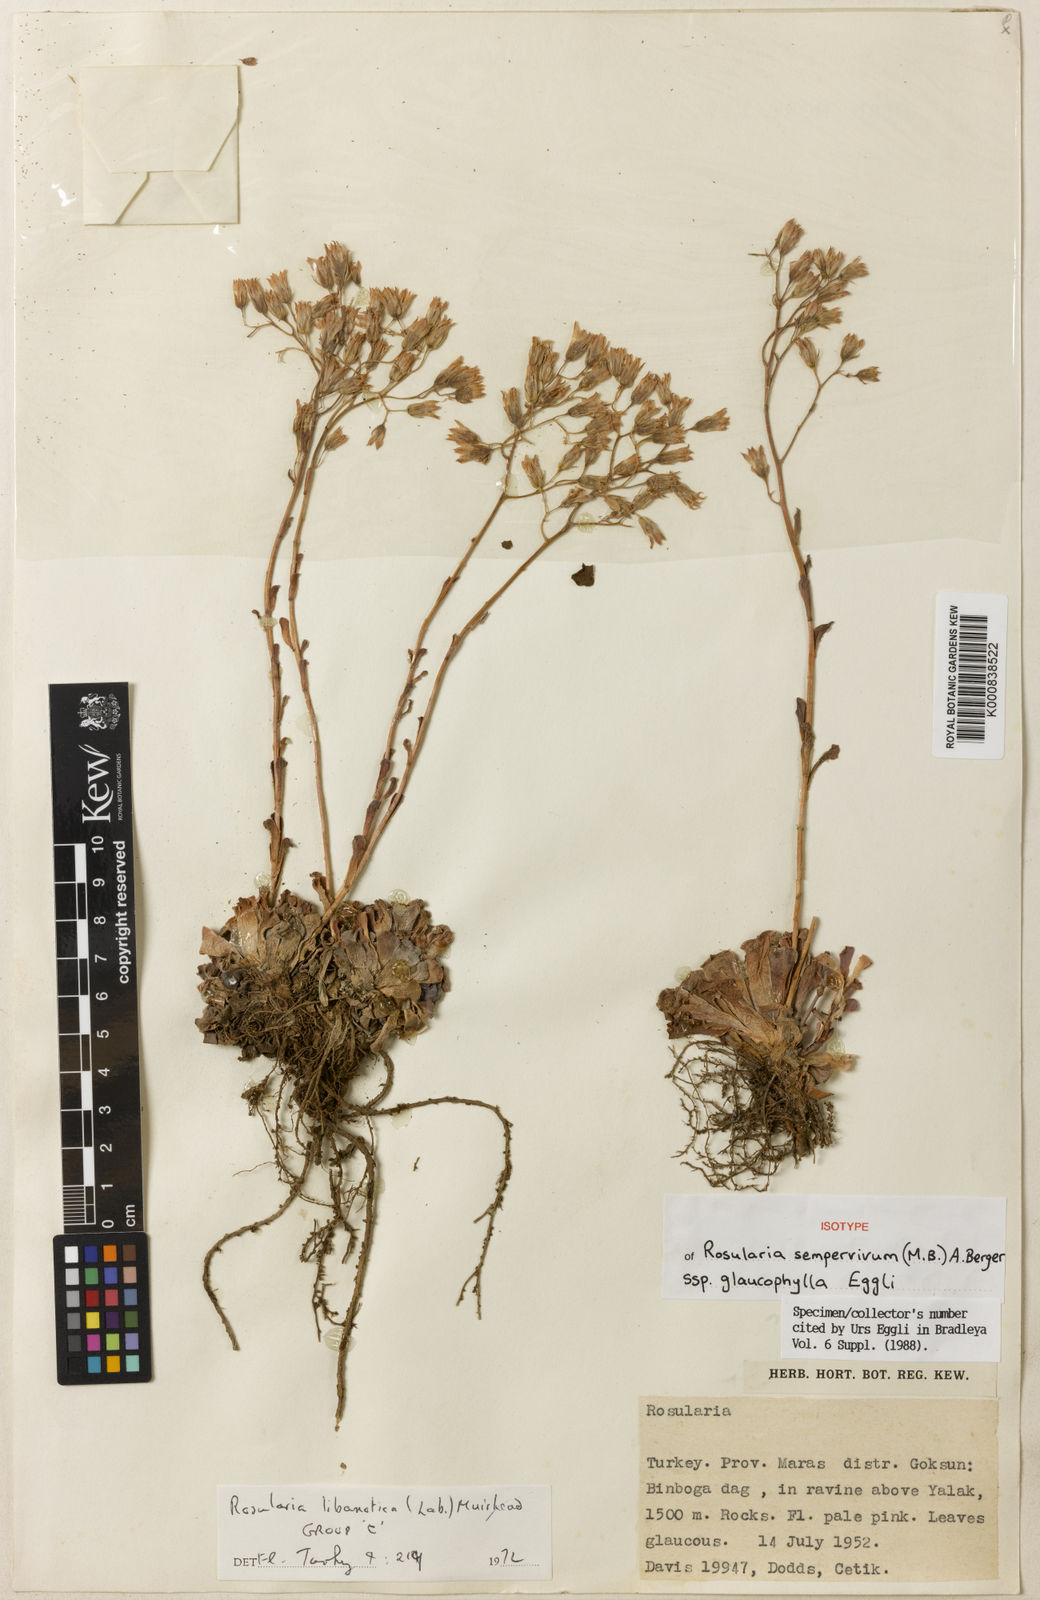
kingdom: Plantae
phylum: Tracheophyta
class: Magnoliopsida
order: Saxifragales
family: Crassulaceae
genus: Rosularia
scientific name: Rosularia sempervivum
